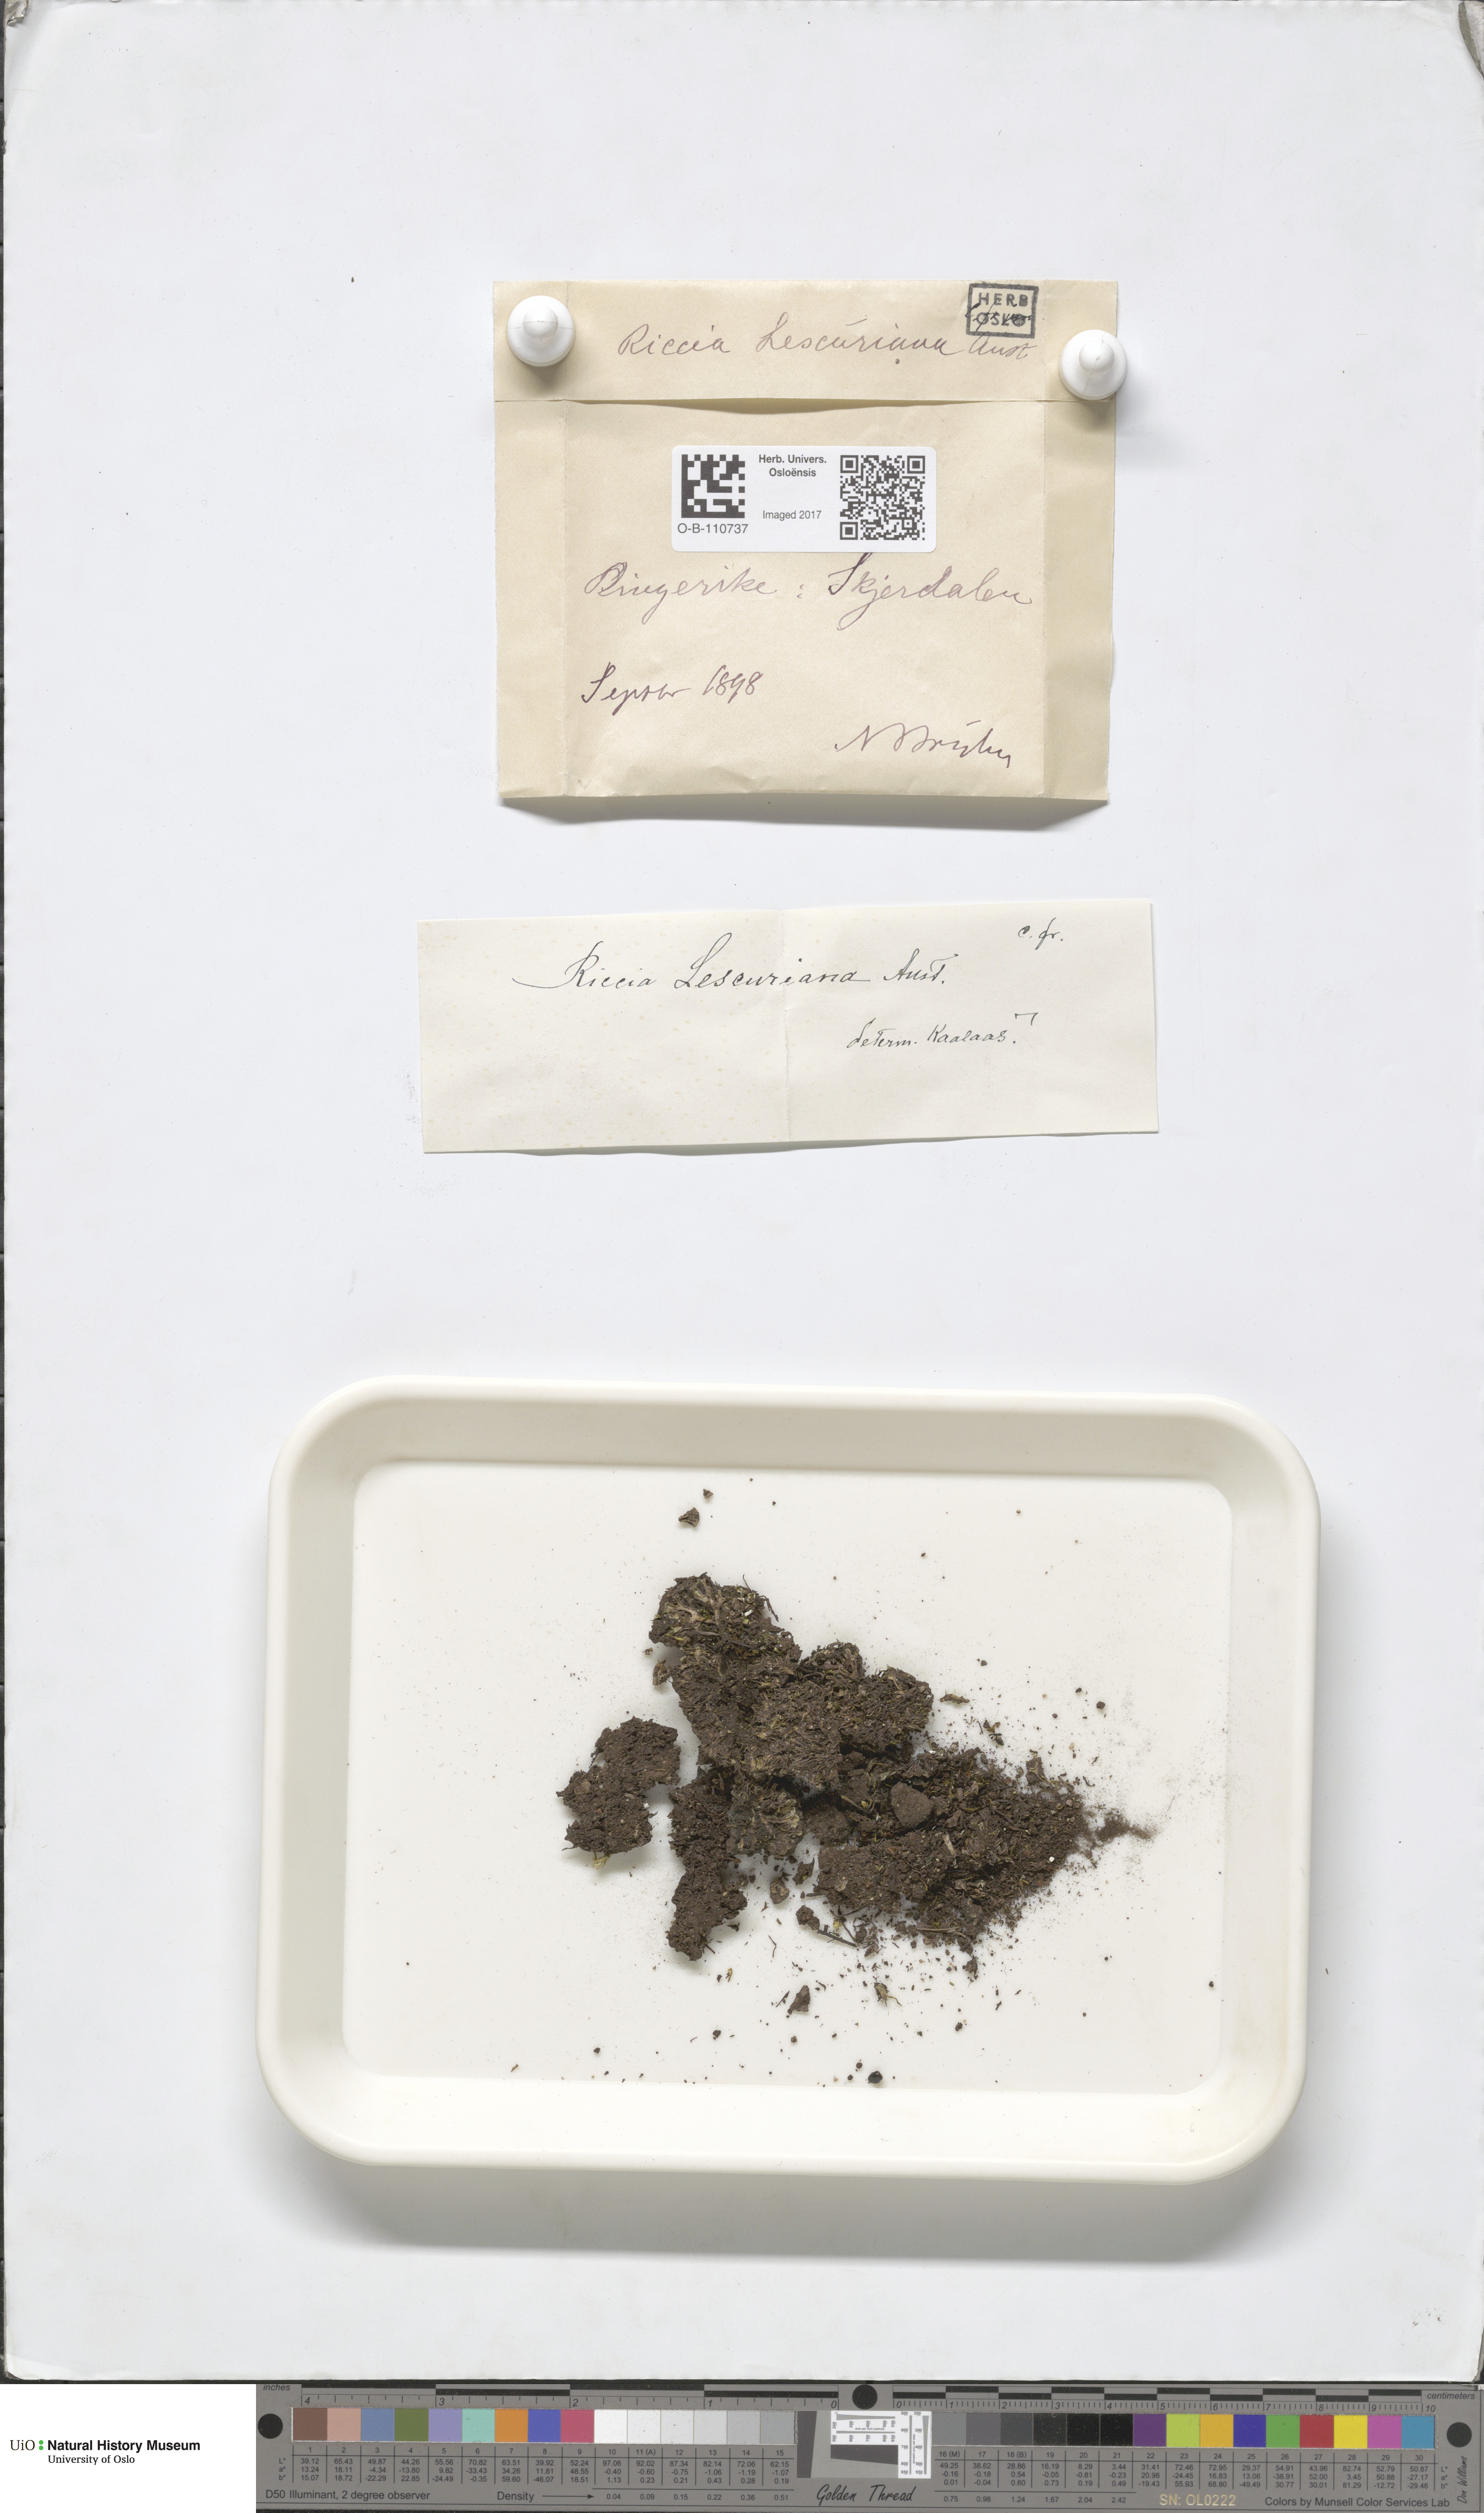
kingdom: Plantae
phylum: Marchantiophyta
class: Marchantiopsida
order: Marchantiales
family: Ricciaceae
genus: Riccia
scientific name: Riccia beyrichiana
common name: Purple crystalwort
